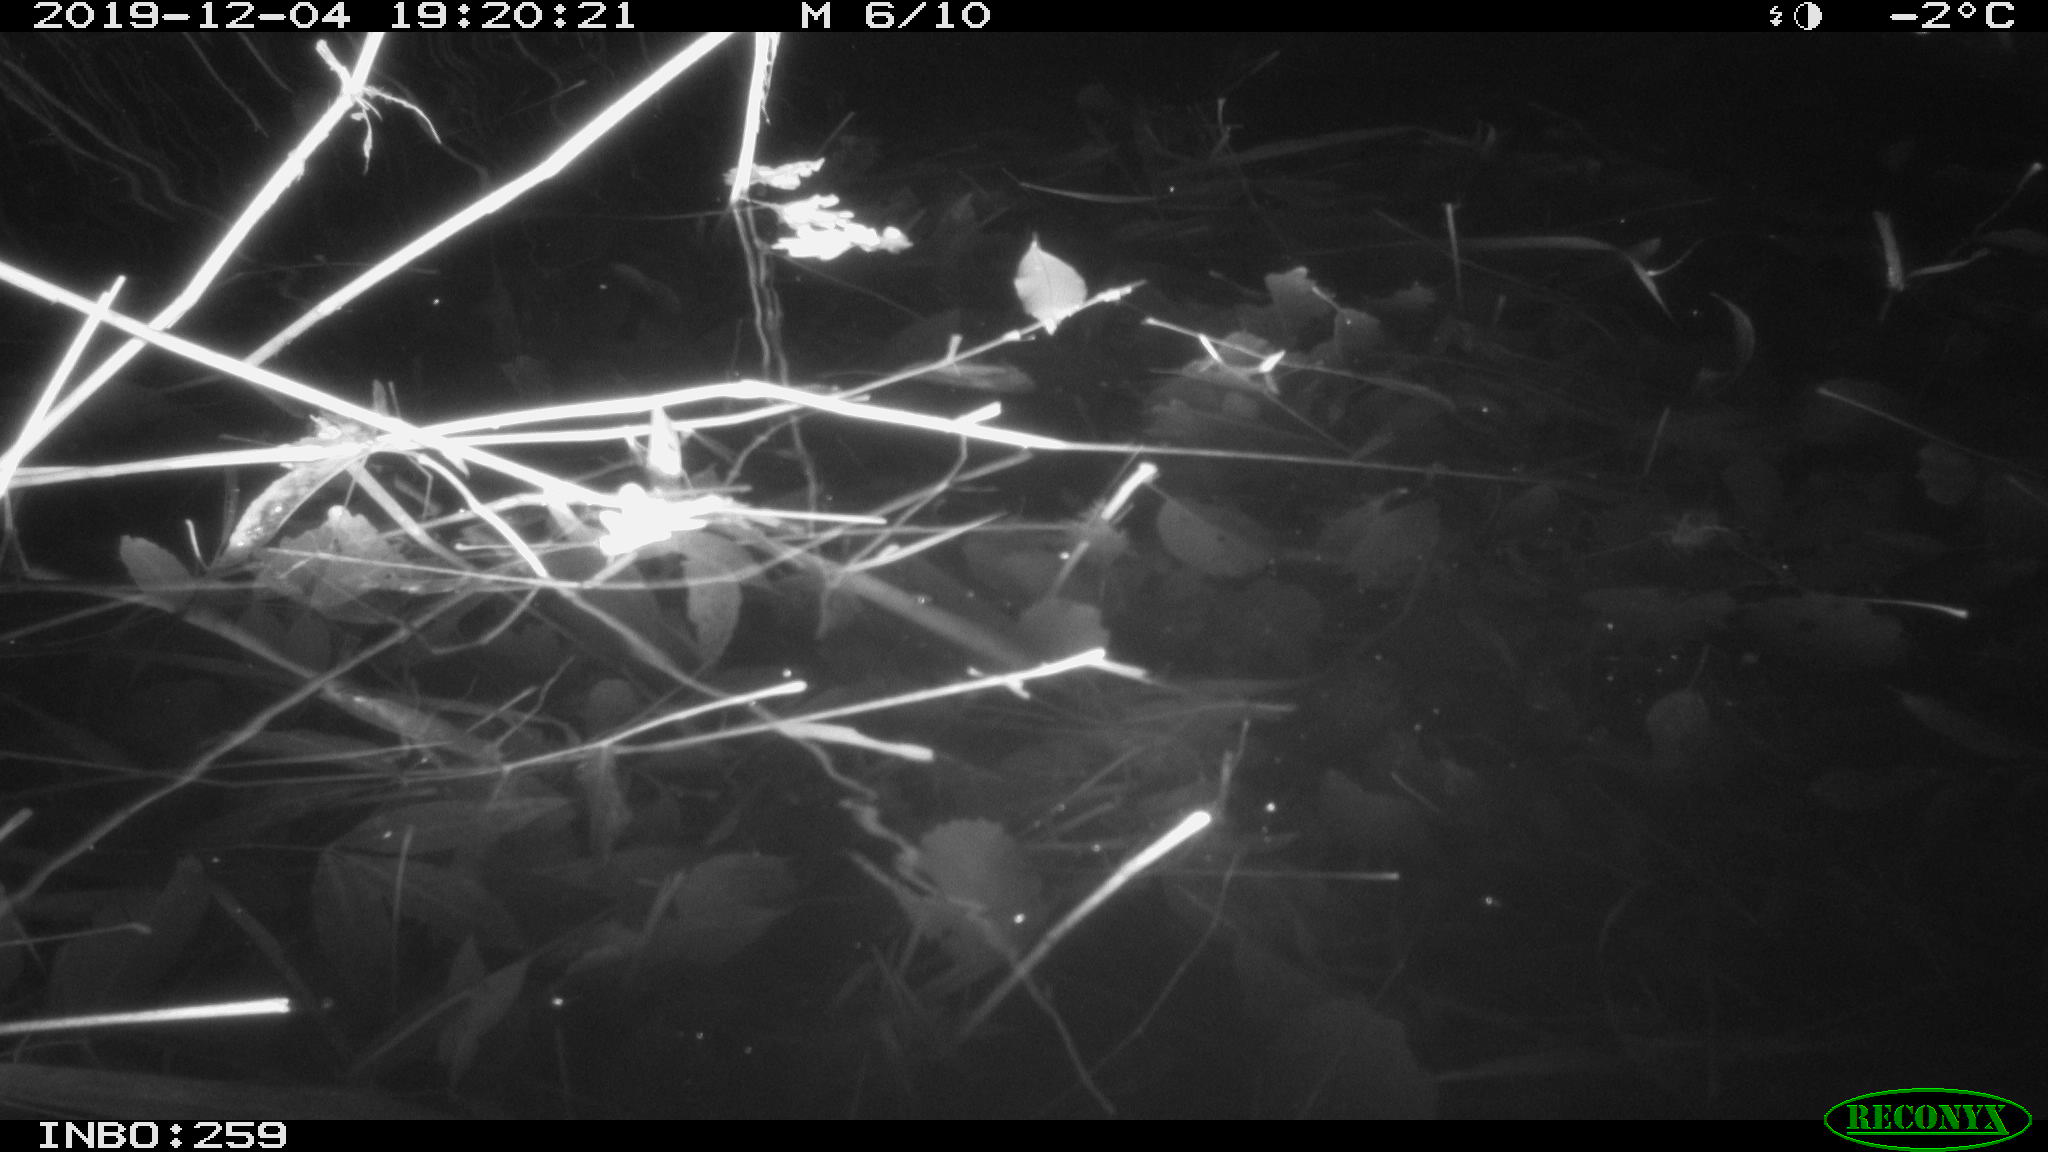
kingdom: Animalia
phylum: Chordata
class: Mammalia
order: Rodentia
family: Cricetidae
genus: Ondatra
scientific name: Ondatra zibethicus
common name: Muskrat
